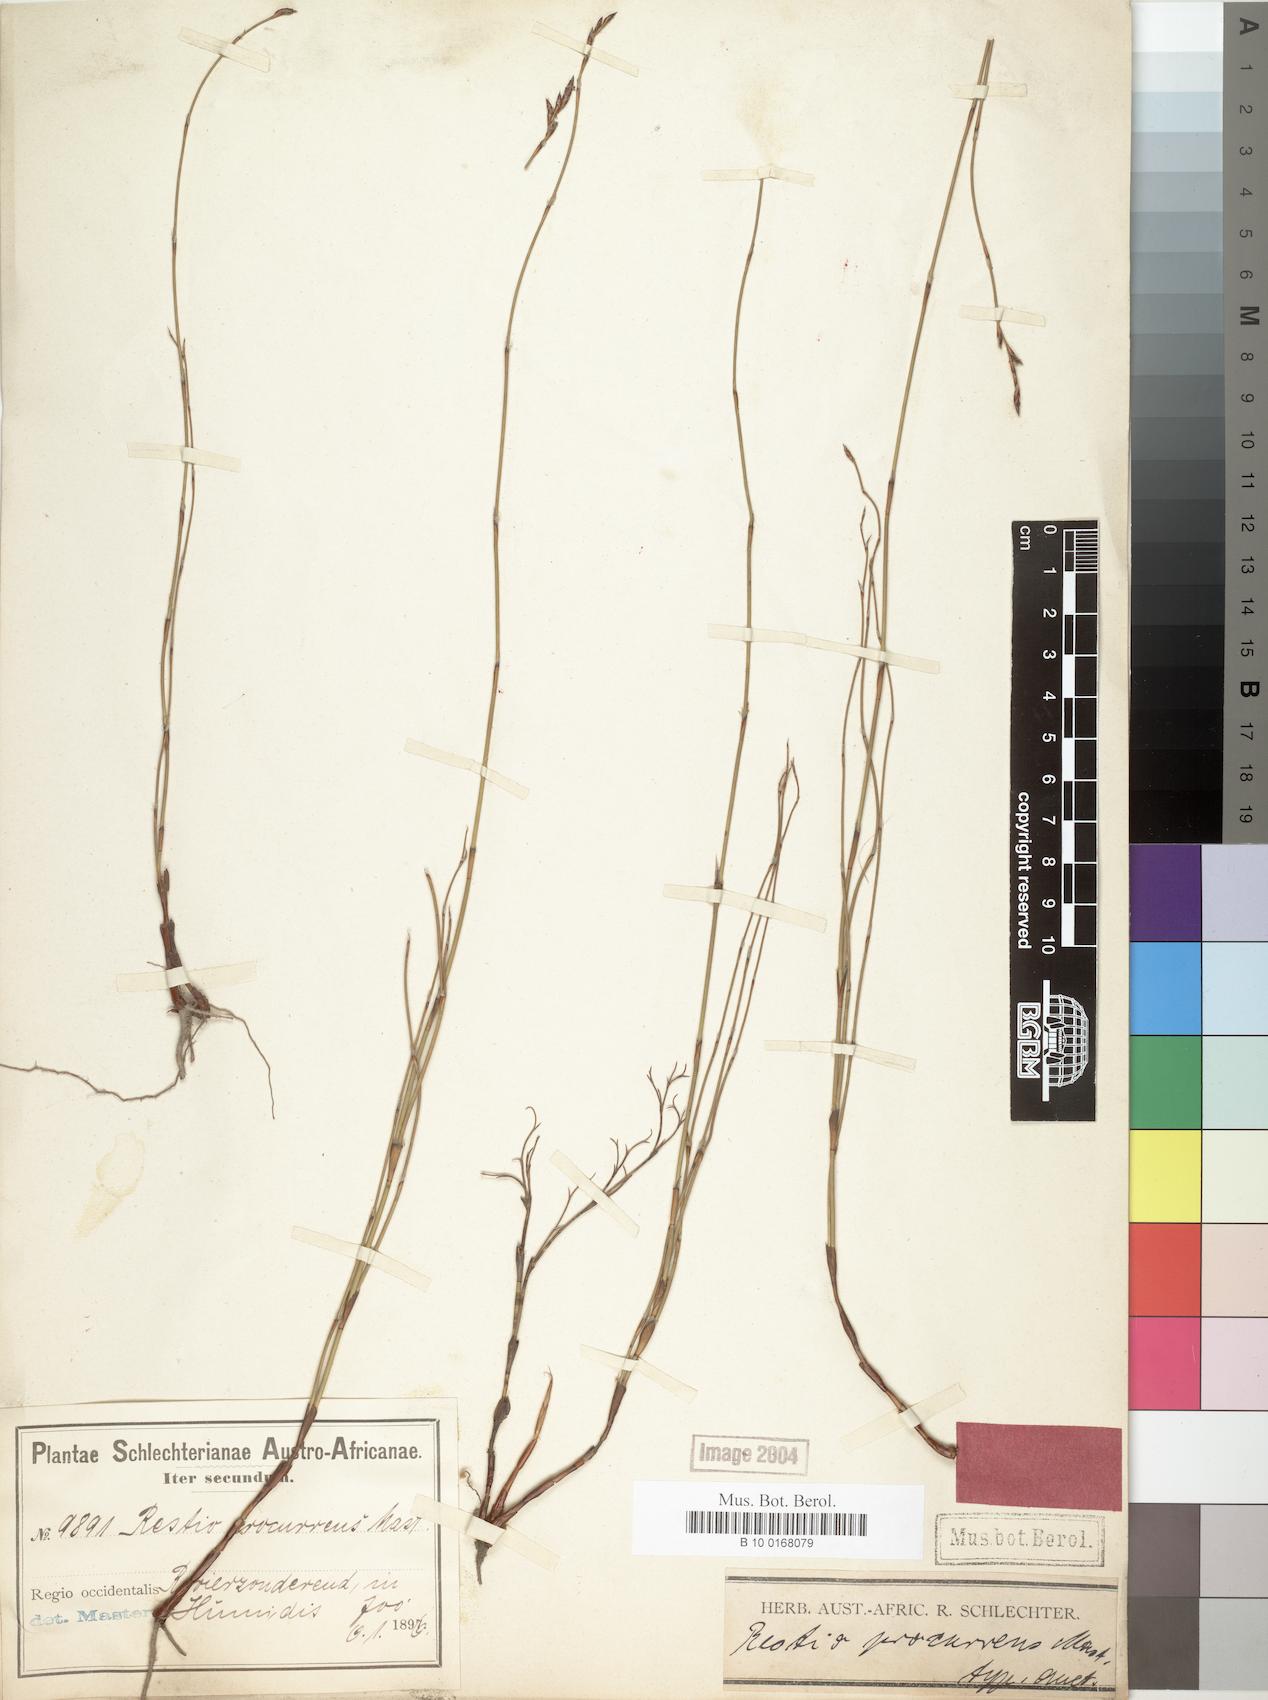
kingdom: Plantae
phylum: Tracheophyta
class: Liliopsida
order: Poales
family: Restionaceae
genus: Restio
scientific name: Restio helenae
